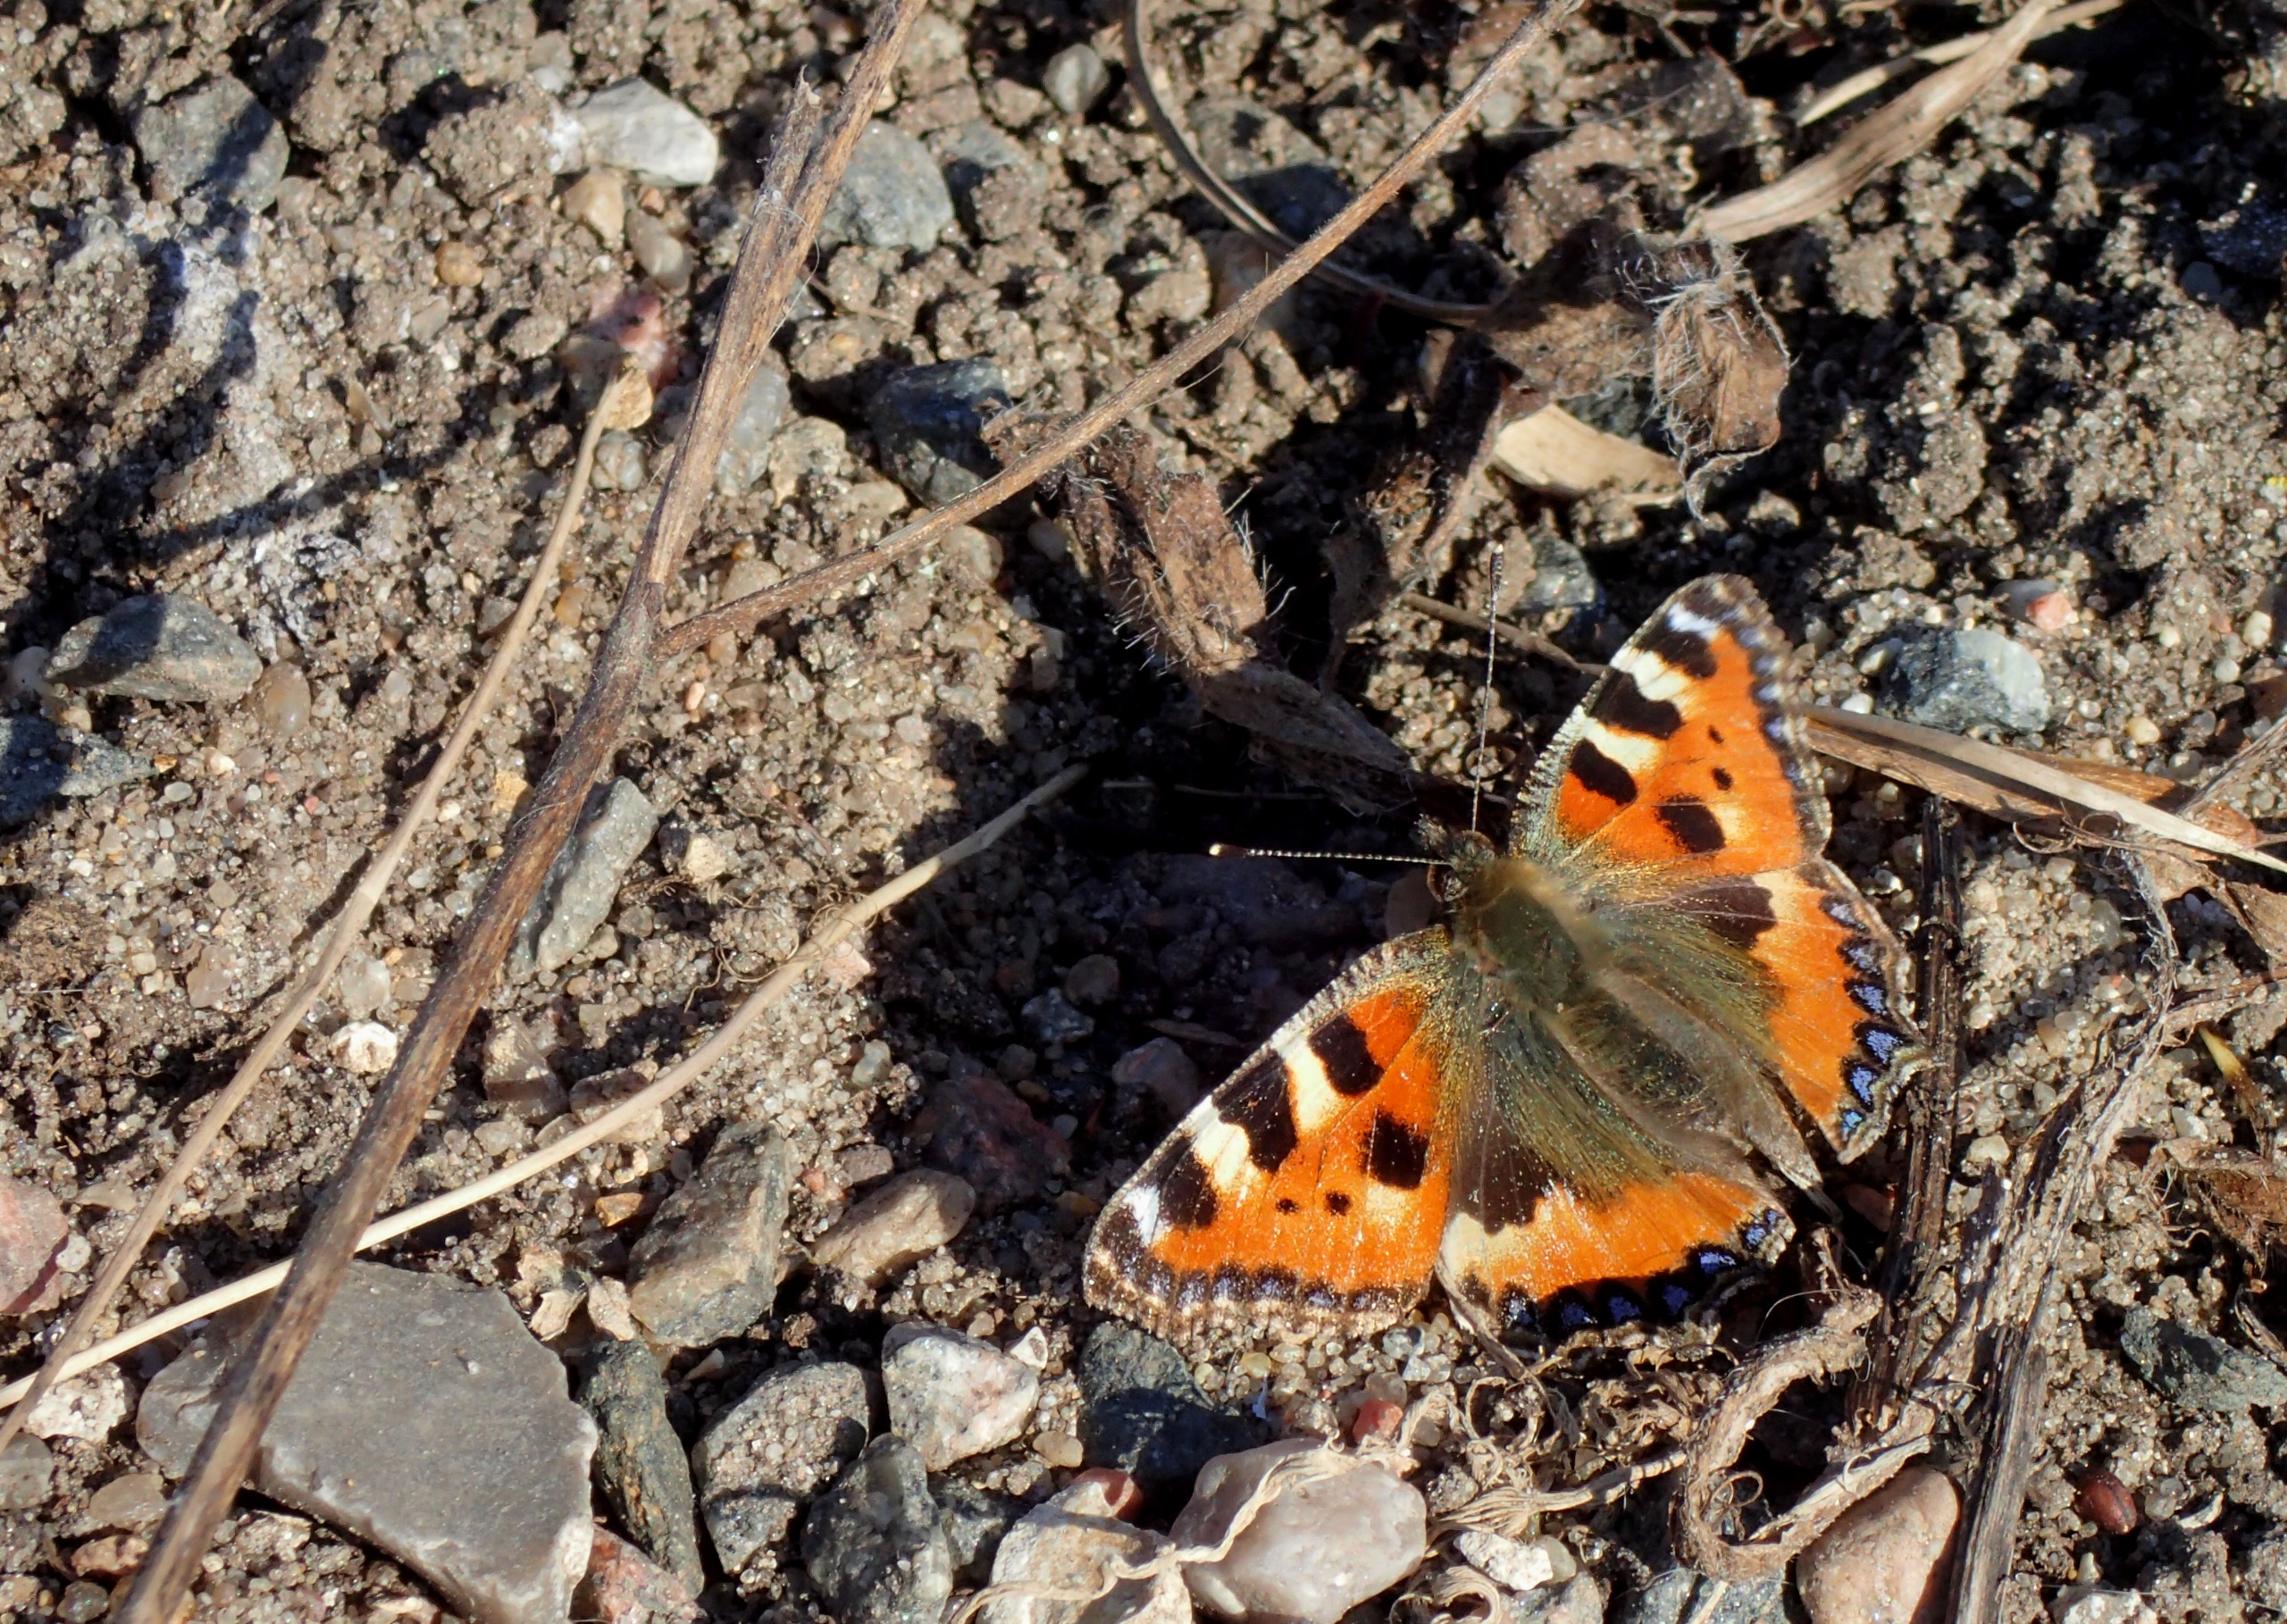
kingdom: Animalia
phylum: Arthropoda
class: Insecta
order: Lepidoptera
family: Nymphalidae
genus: Aglais
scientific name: Aglais urticae
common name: Nældens takvinge
